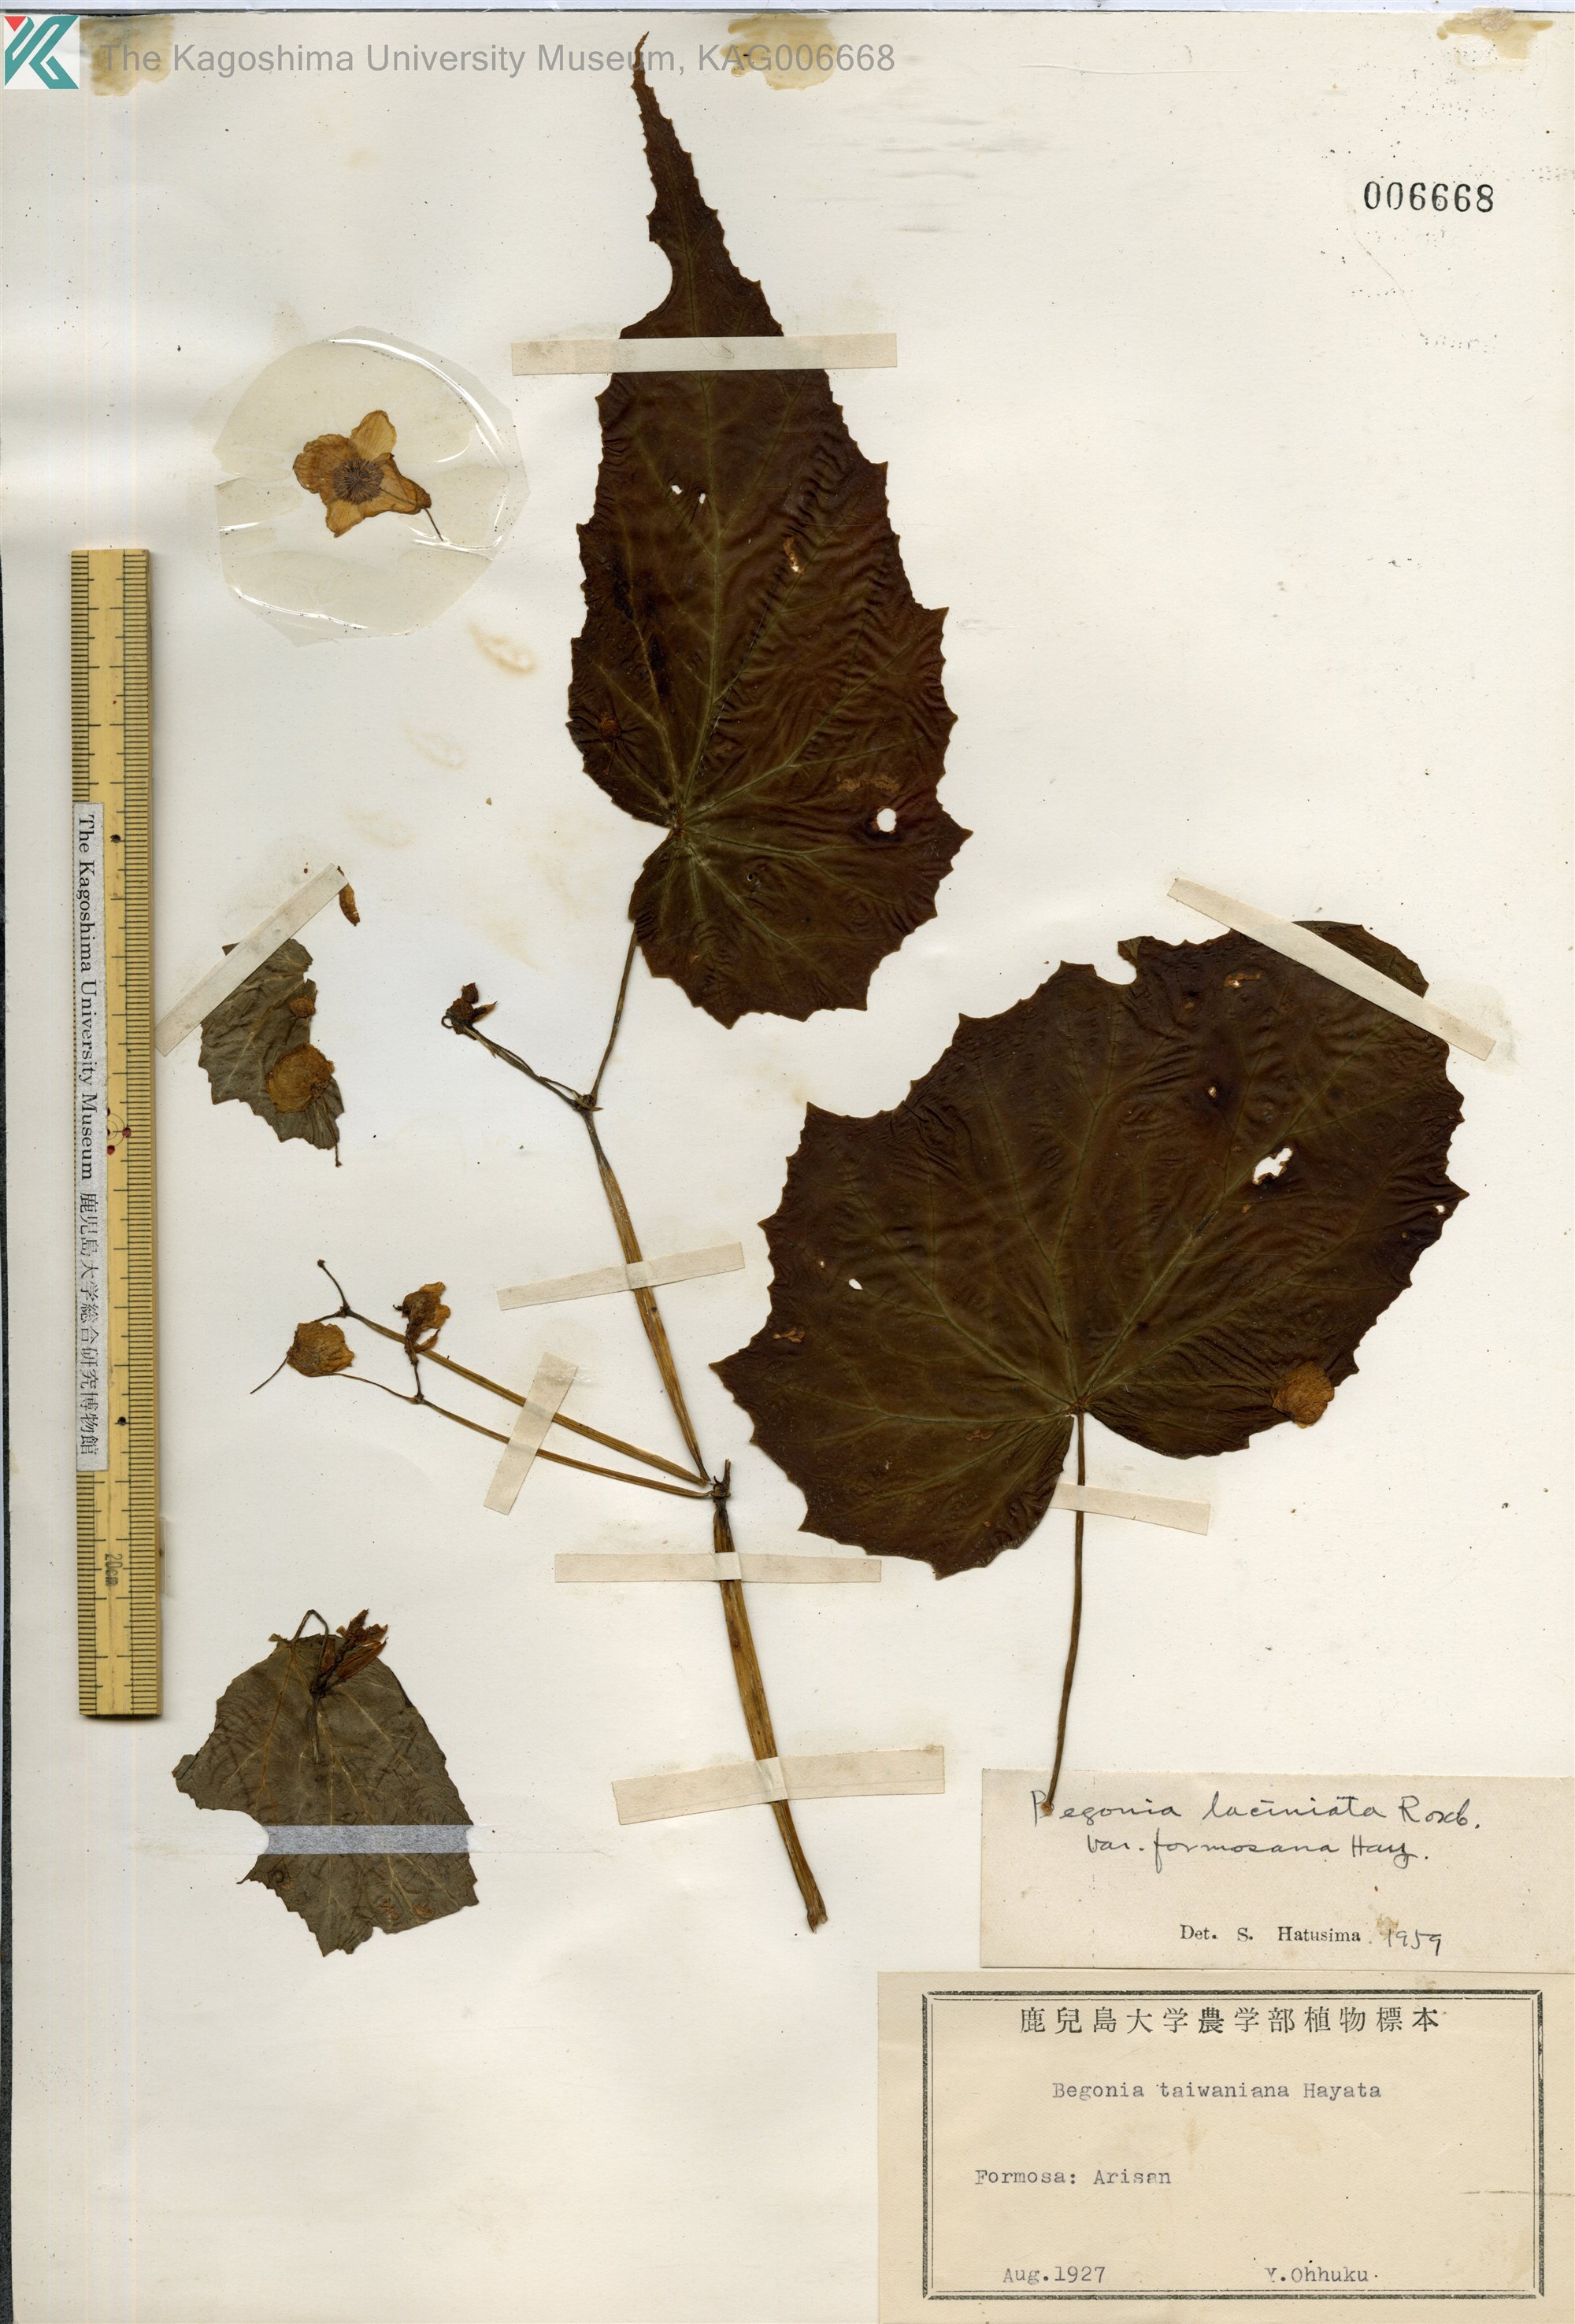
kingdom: Plantae
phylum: Tracheophyta
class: Magnoliopsida
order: Cucurbitales
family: Begoniaceae
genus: Begonia
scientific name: Begonia palmata
